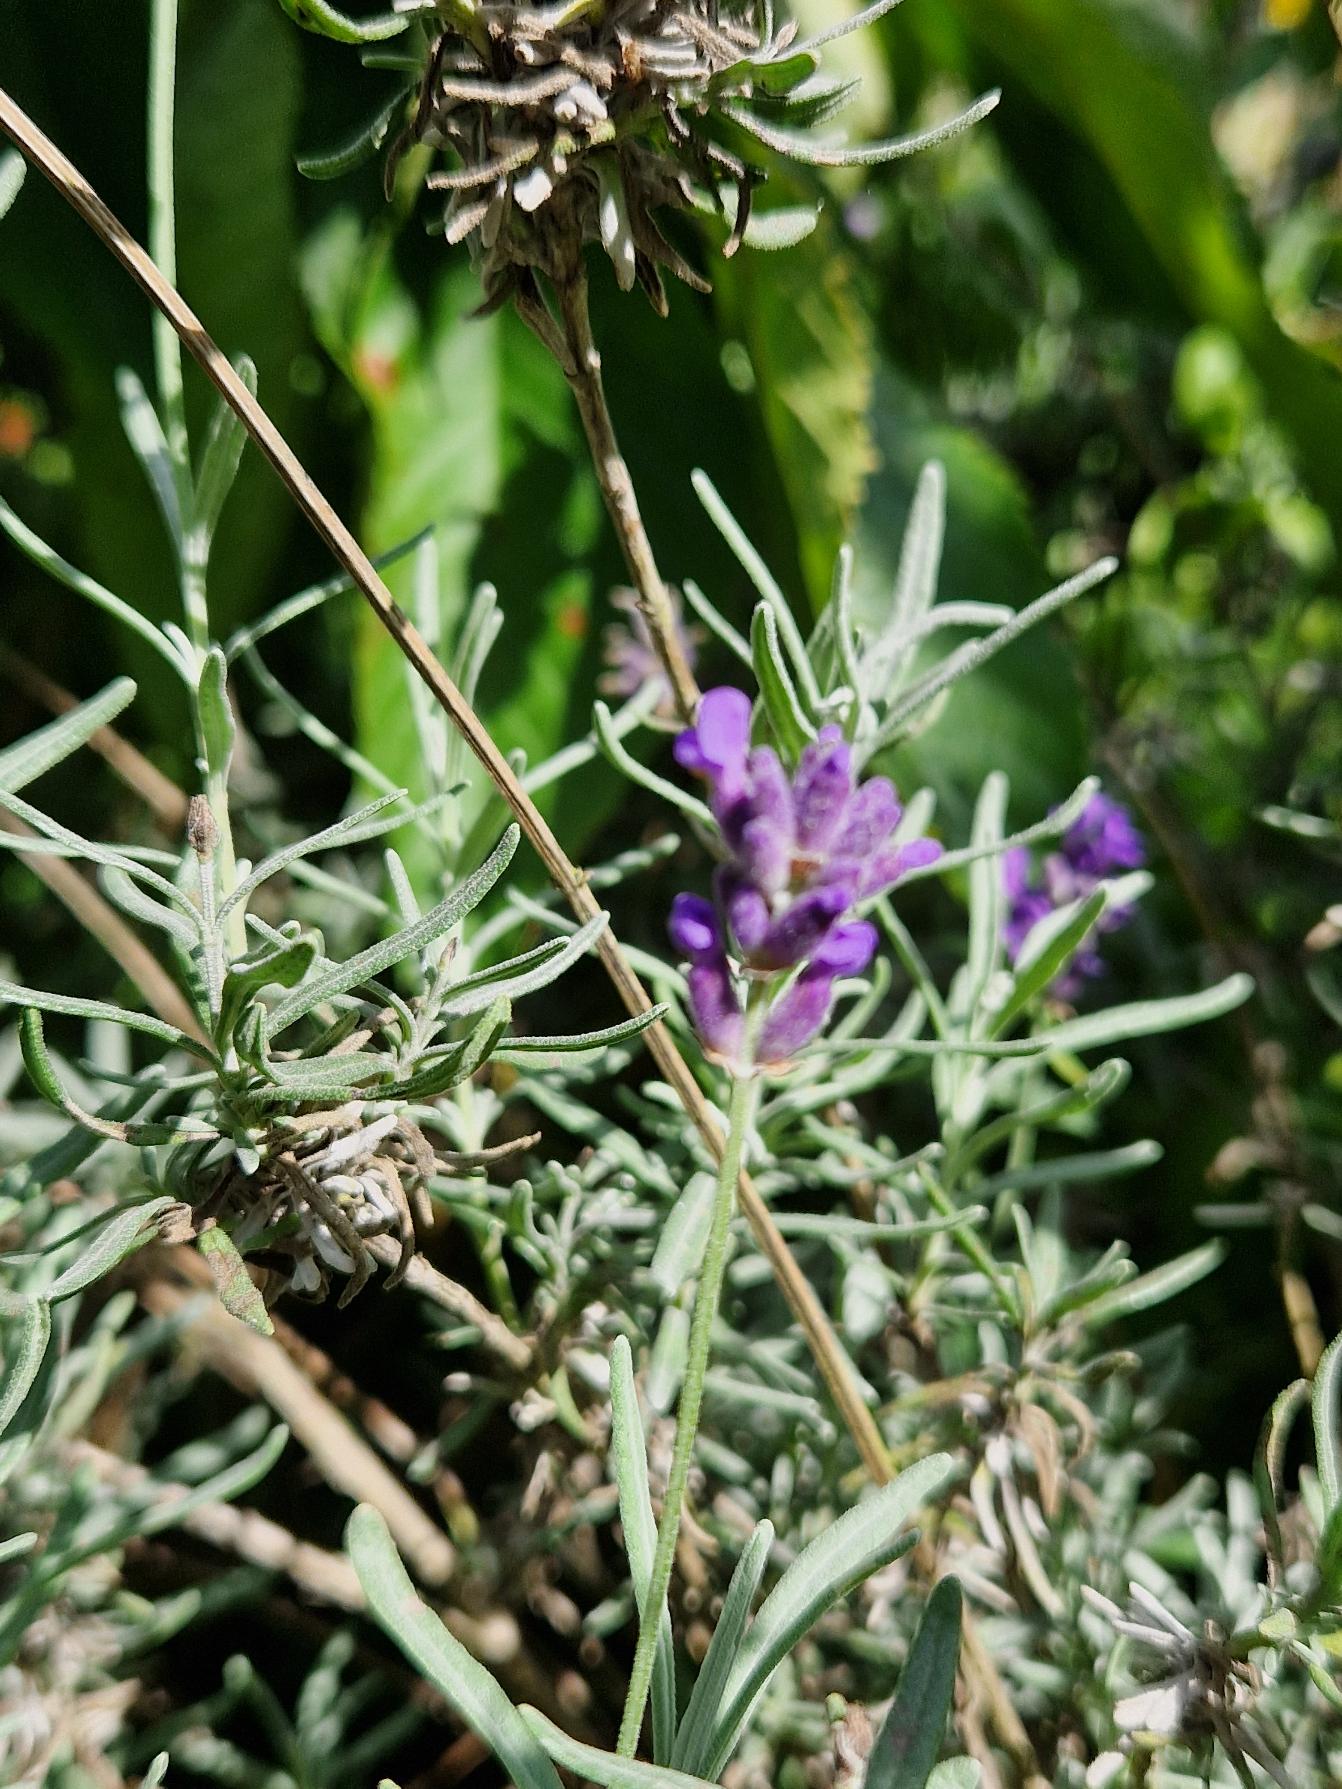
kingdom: Plantae
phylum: Tracheophyta
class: Magnoliopsida
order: Lamiales
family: Lamiaceae
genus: Lavandula
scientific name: Lavandula angustifolia
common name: Ægte lavendel
